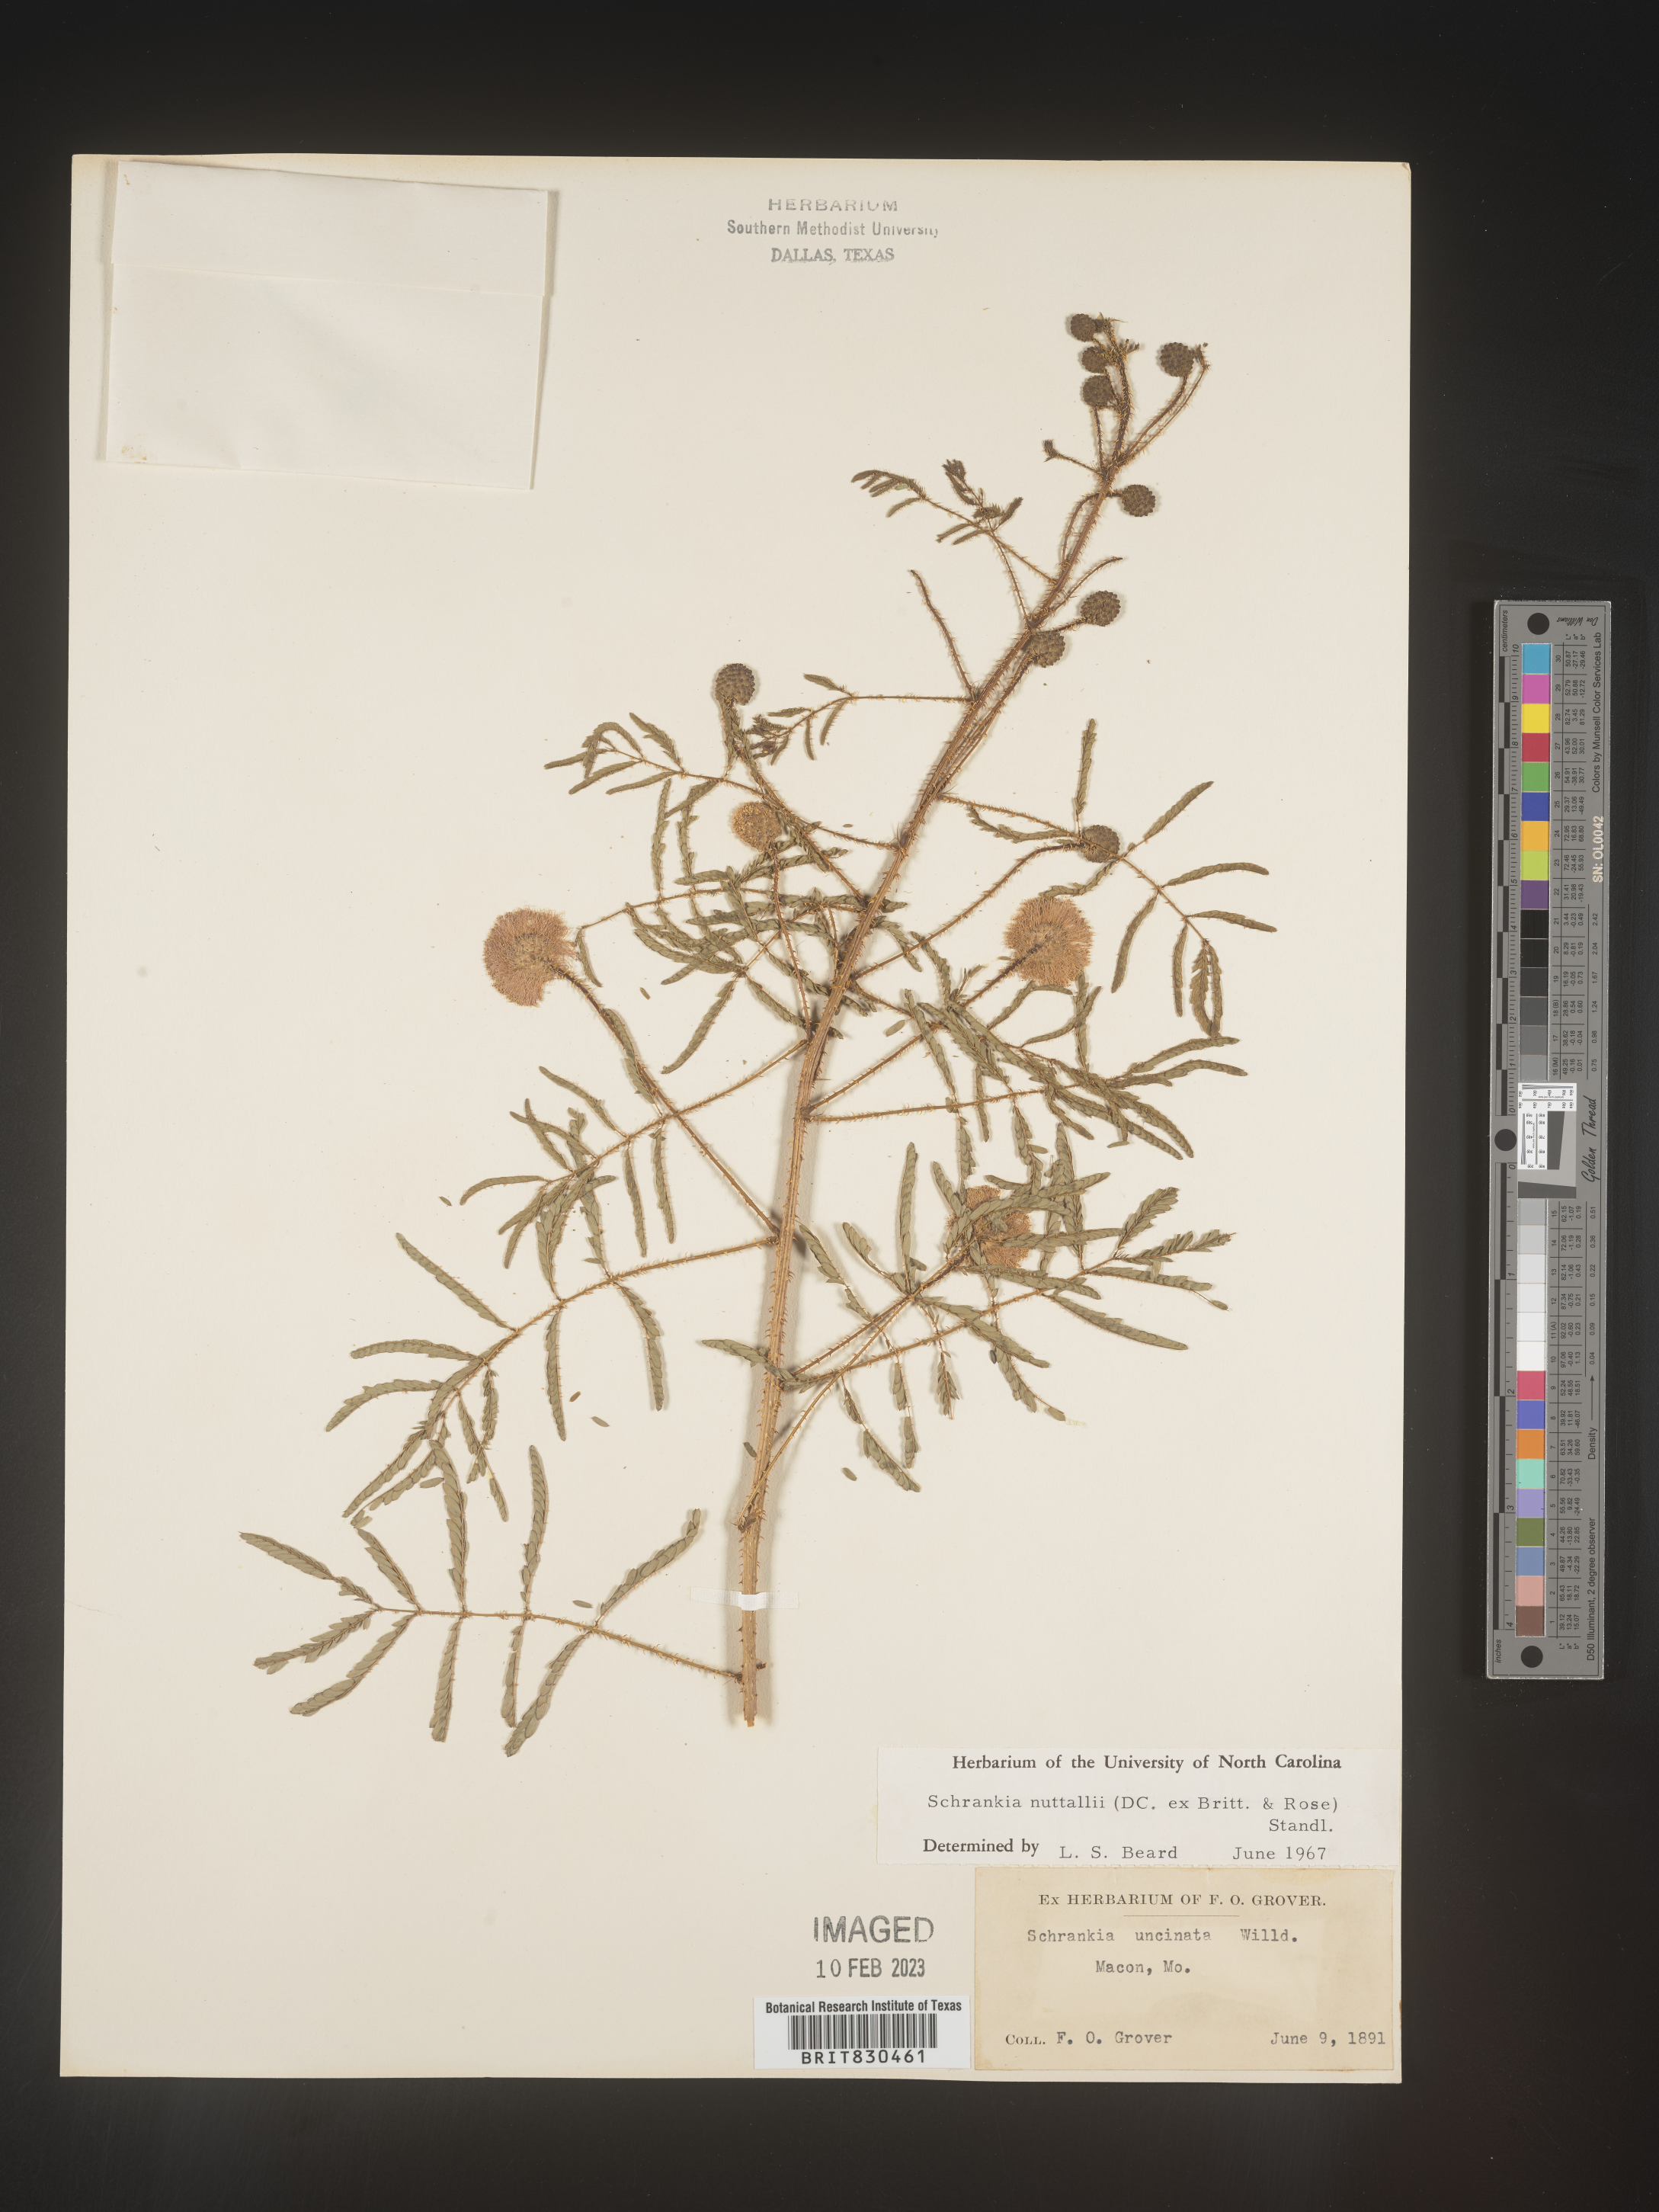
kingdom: Plantae
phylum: Tracheophyta
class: Magnoliopsida
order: Fabales
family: Fabaceae
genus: Mimosa
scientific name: Mimosa quadrivalvis
